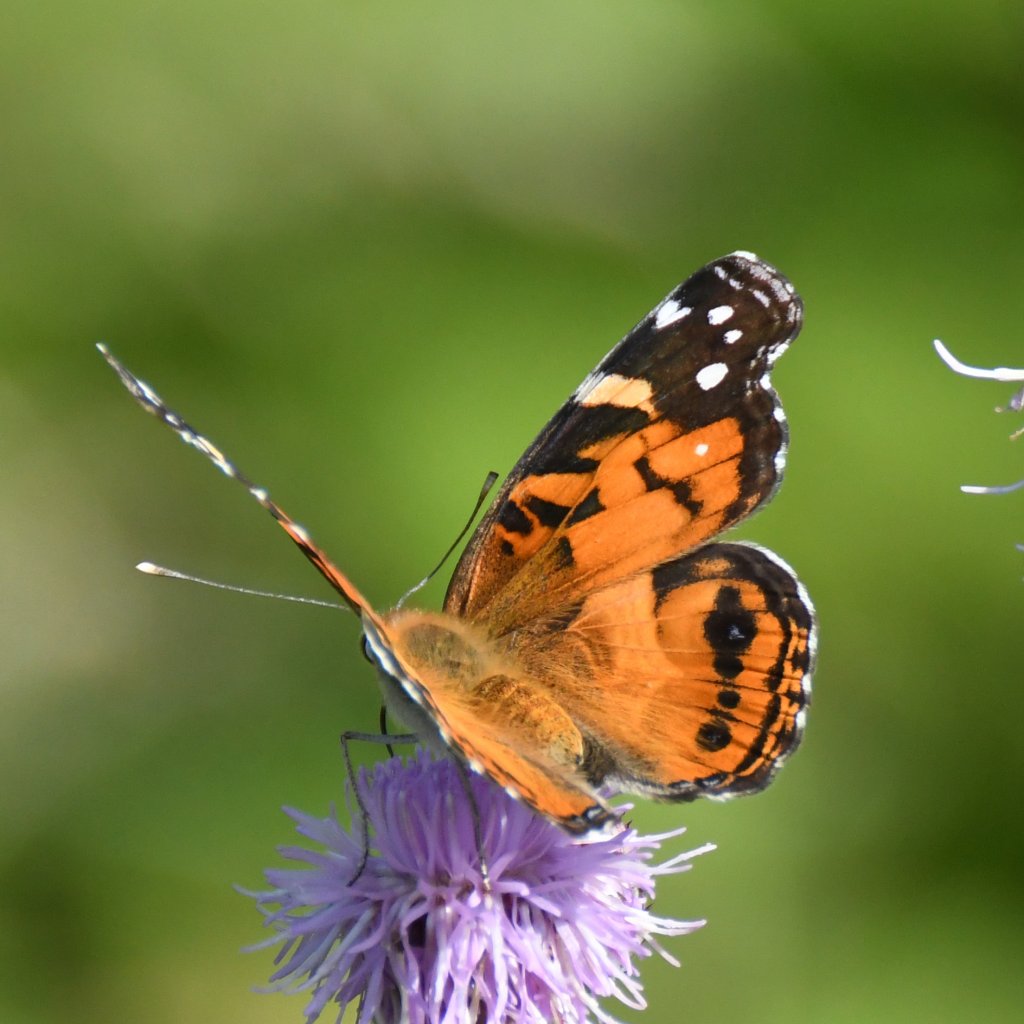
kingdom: Animalia
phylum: Arthropoda
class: Insecta
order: Lepidoptera
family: Nymphalidae
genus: Vanessa
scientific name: Vanessa virginiensis
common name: American Lady
